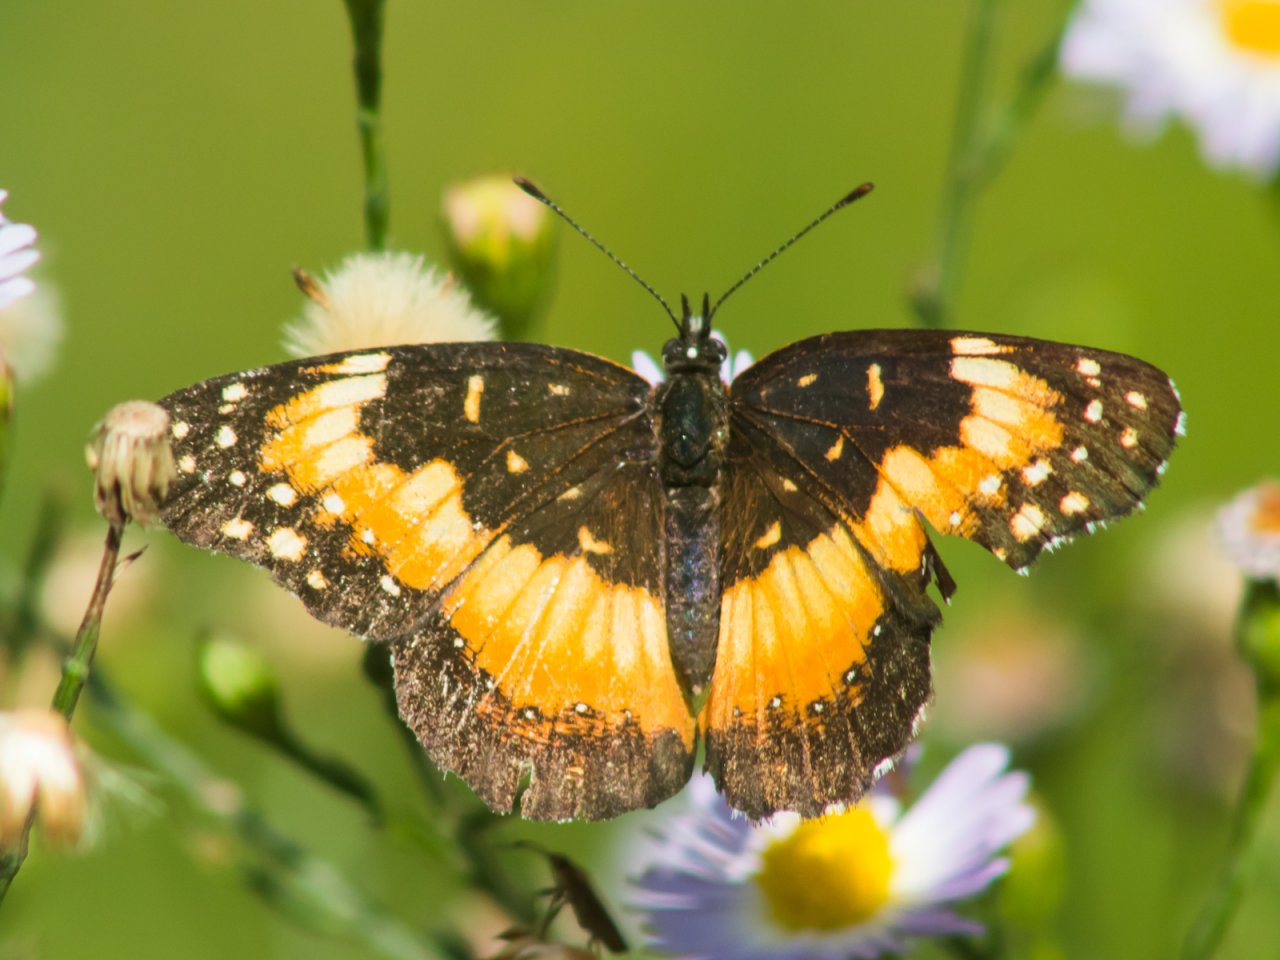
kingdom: Animalia
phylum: Arthropoda
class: Insecta
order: Lepidoptera
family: Nymphalidae
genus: Chlosyne
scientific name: Chlosyne lacinia
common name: Bordered Patch
